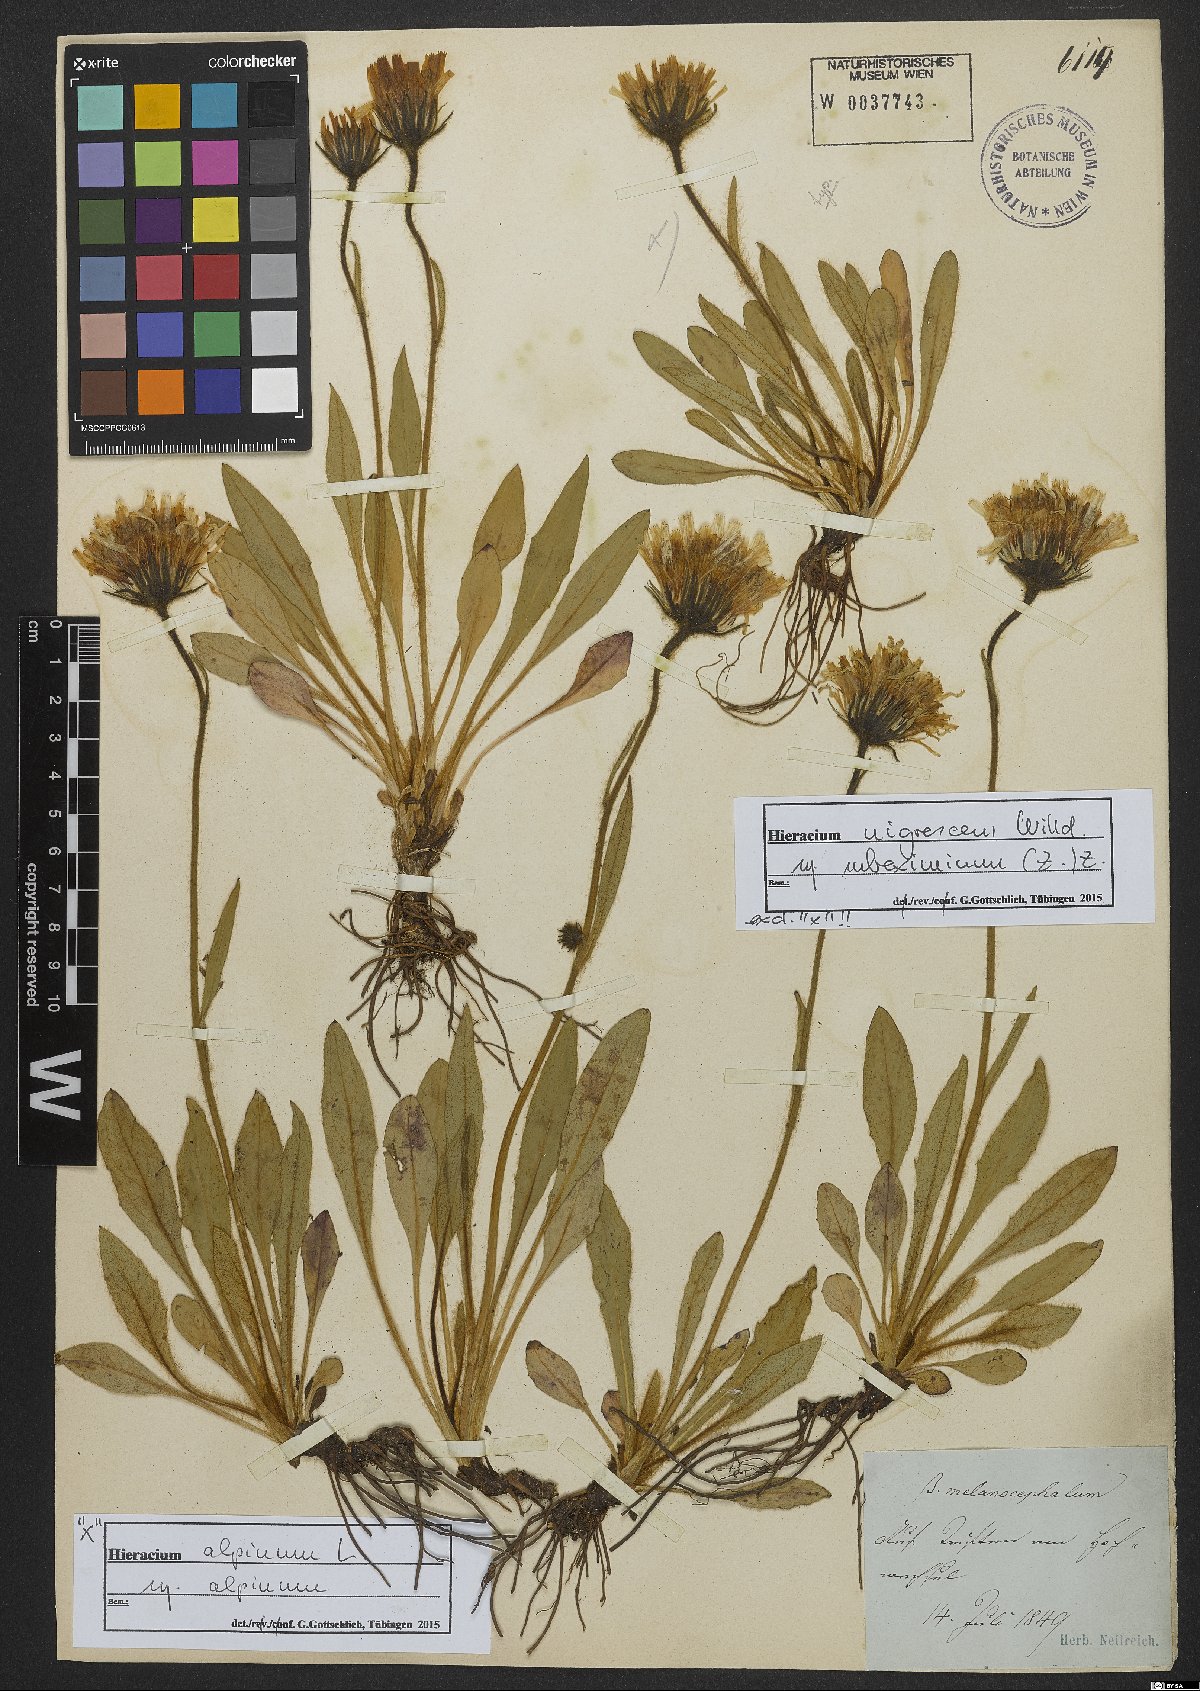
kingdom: Plantae
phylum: Tracheophyta
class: Magnoliopsida
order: Asterales
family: Asteraceae
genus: Hieracium
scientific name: Hieracium alpinum
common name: Alpine hawkweed
